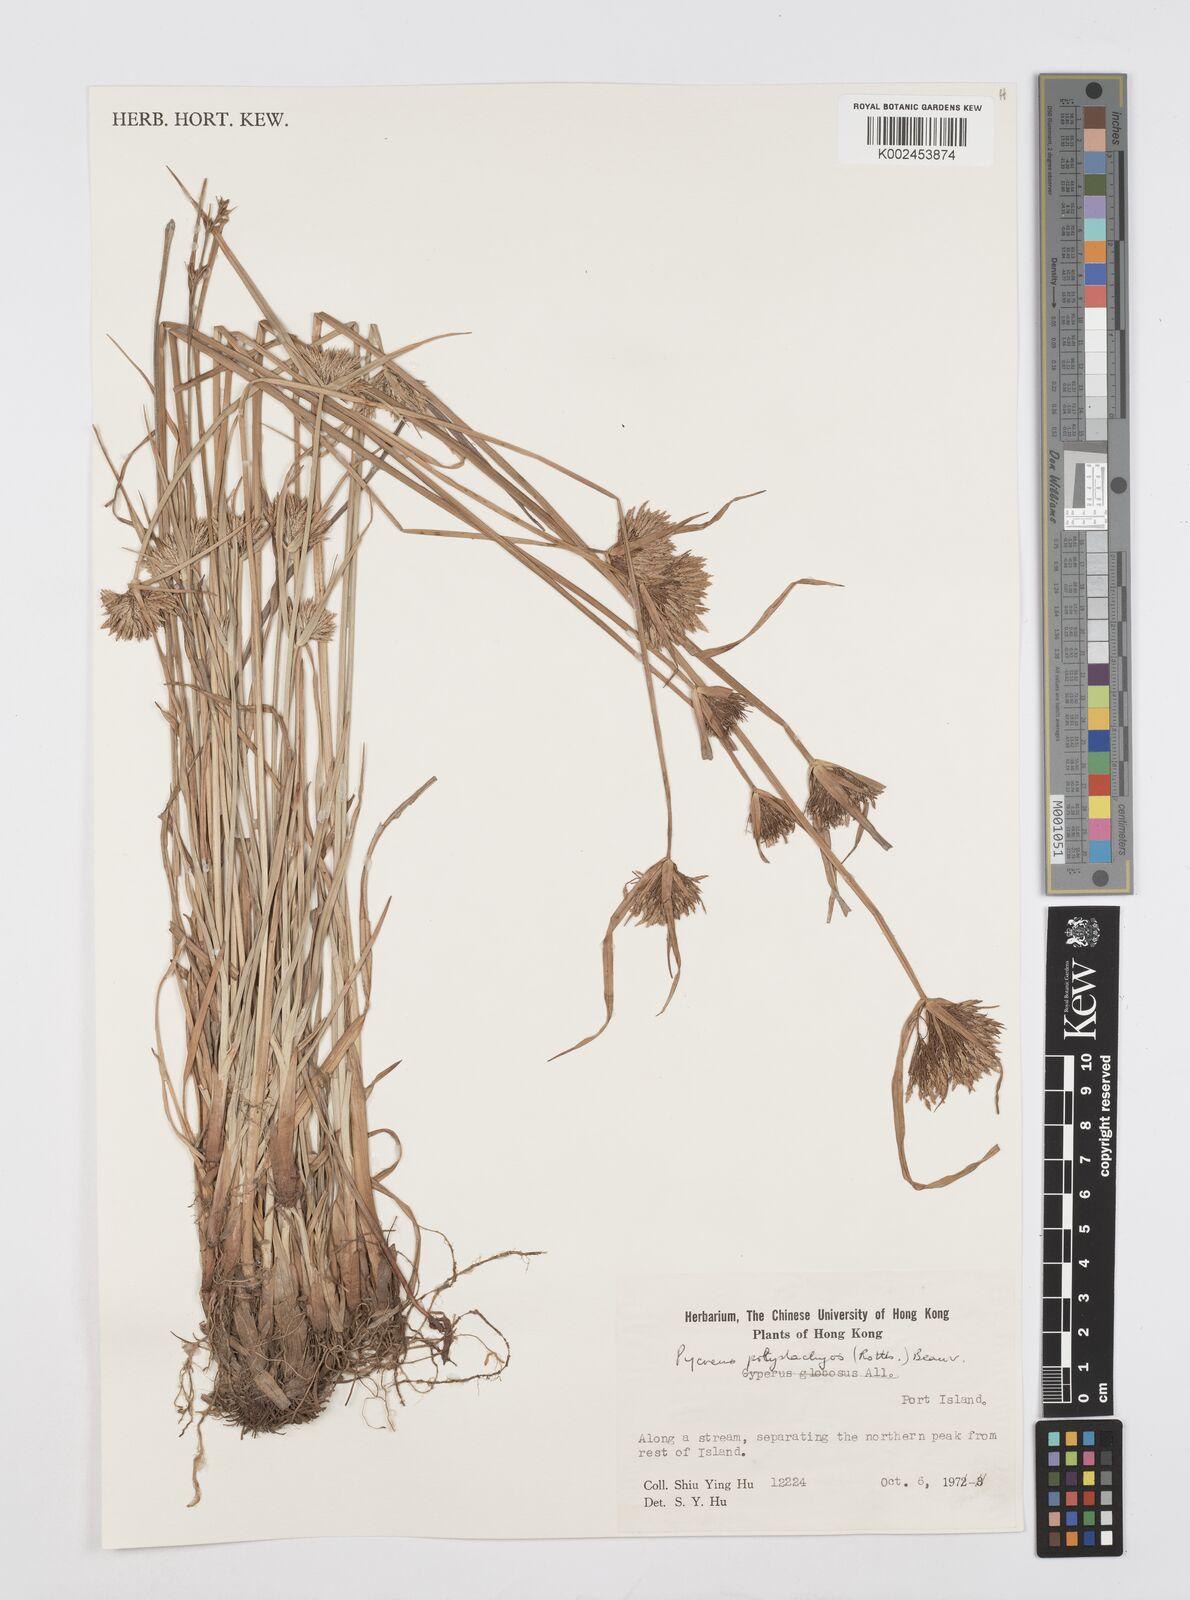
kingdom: Plantae
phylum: Tracheophyta
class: Liliopsida
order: Poales
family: Cyperaceae
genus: Cyperus
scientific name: Cyperus polystachyos
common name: Bunchy flat sedge
